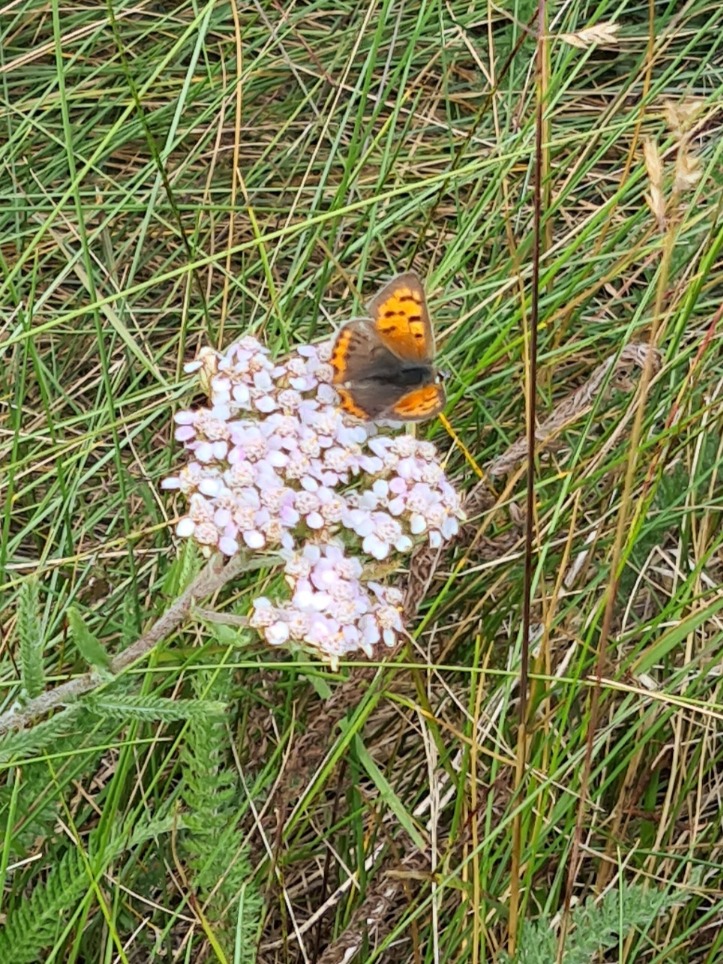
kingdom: Animalia
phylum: Arthropoda
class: Insecta
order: Lepidoptera
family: Lycaenidae
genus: Lycaena
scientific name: Lycaena phlaeas
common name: Lille ildfugl
